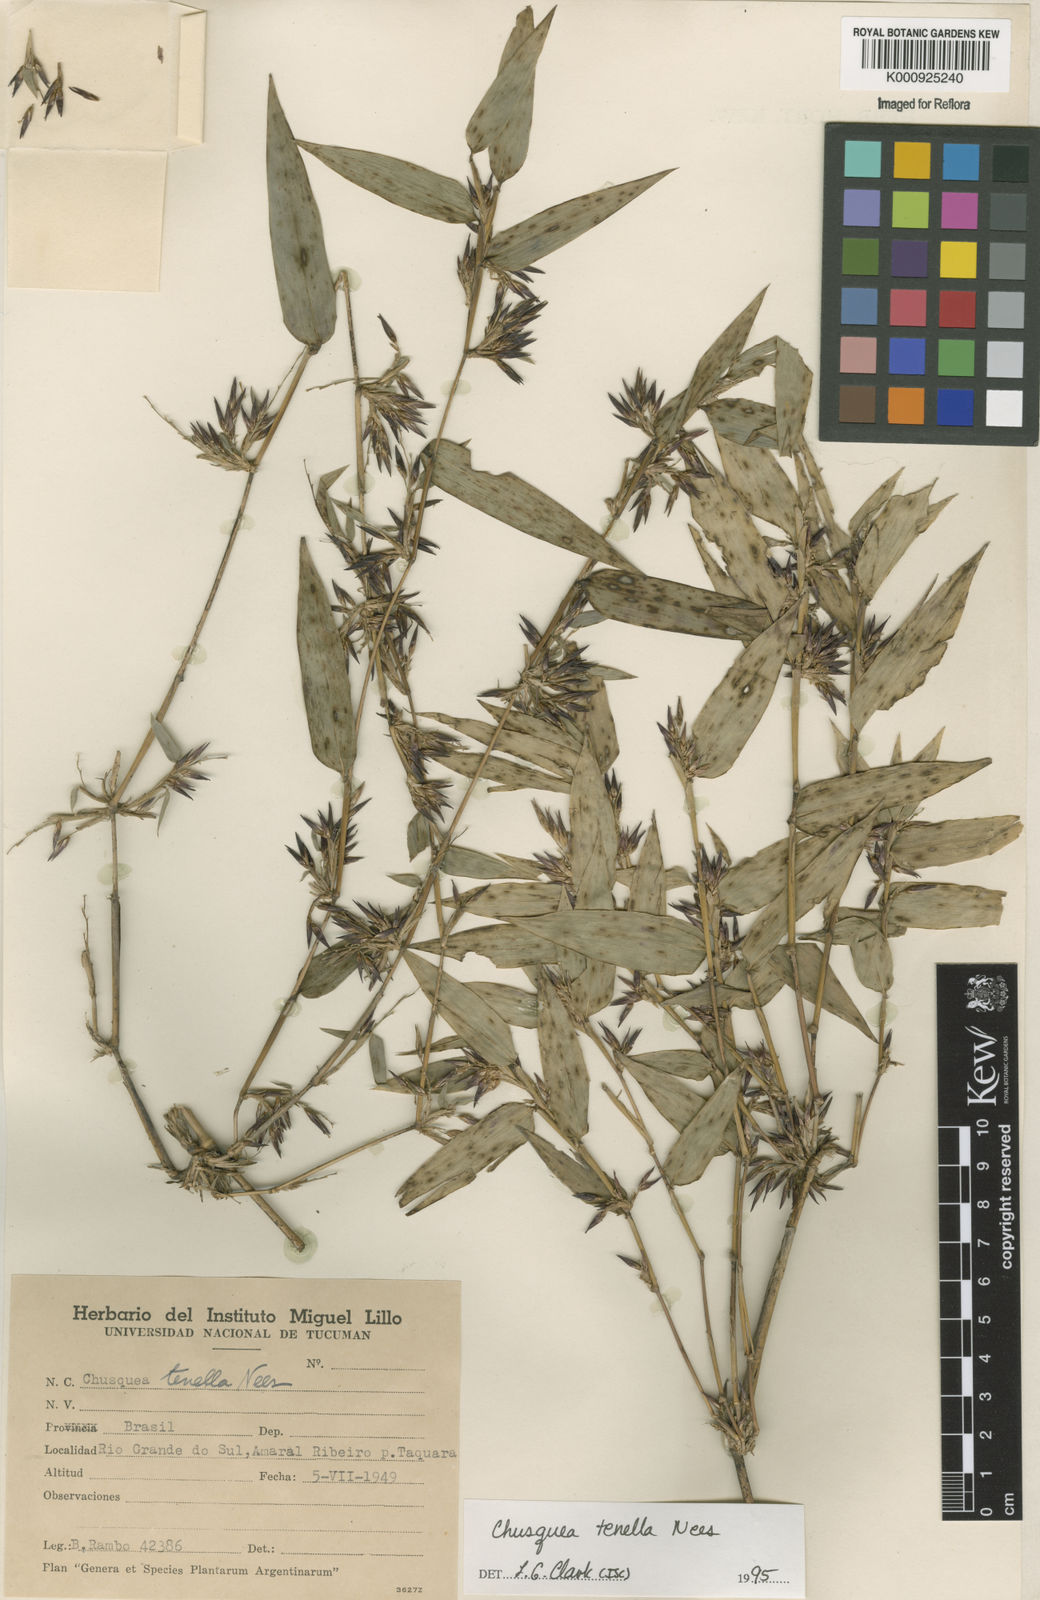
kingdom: Plantae
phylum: Tracheophyta
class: Liliopsida
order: Poales
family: Poaceae
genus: Chusquea
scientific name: Chusquea tenella
